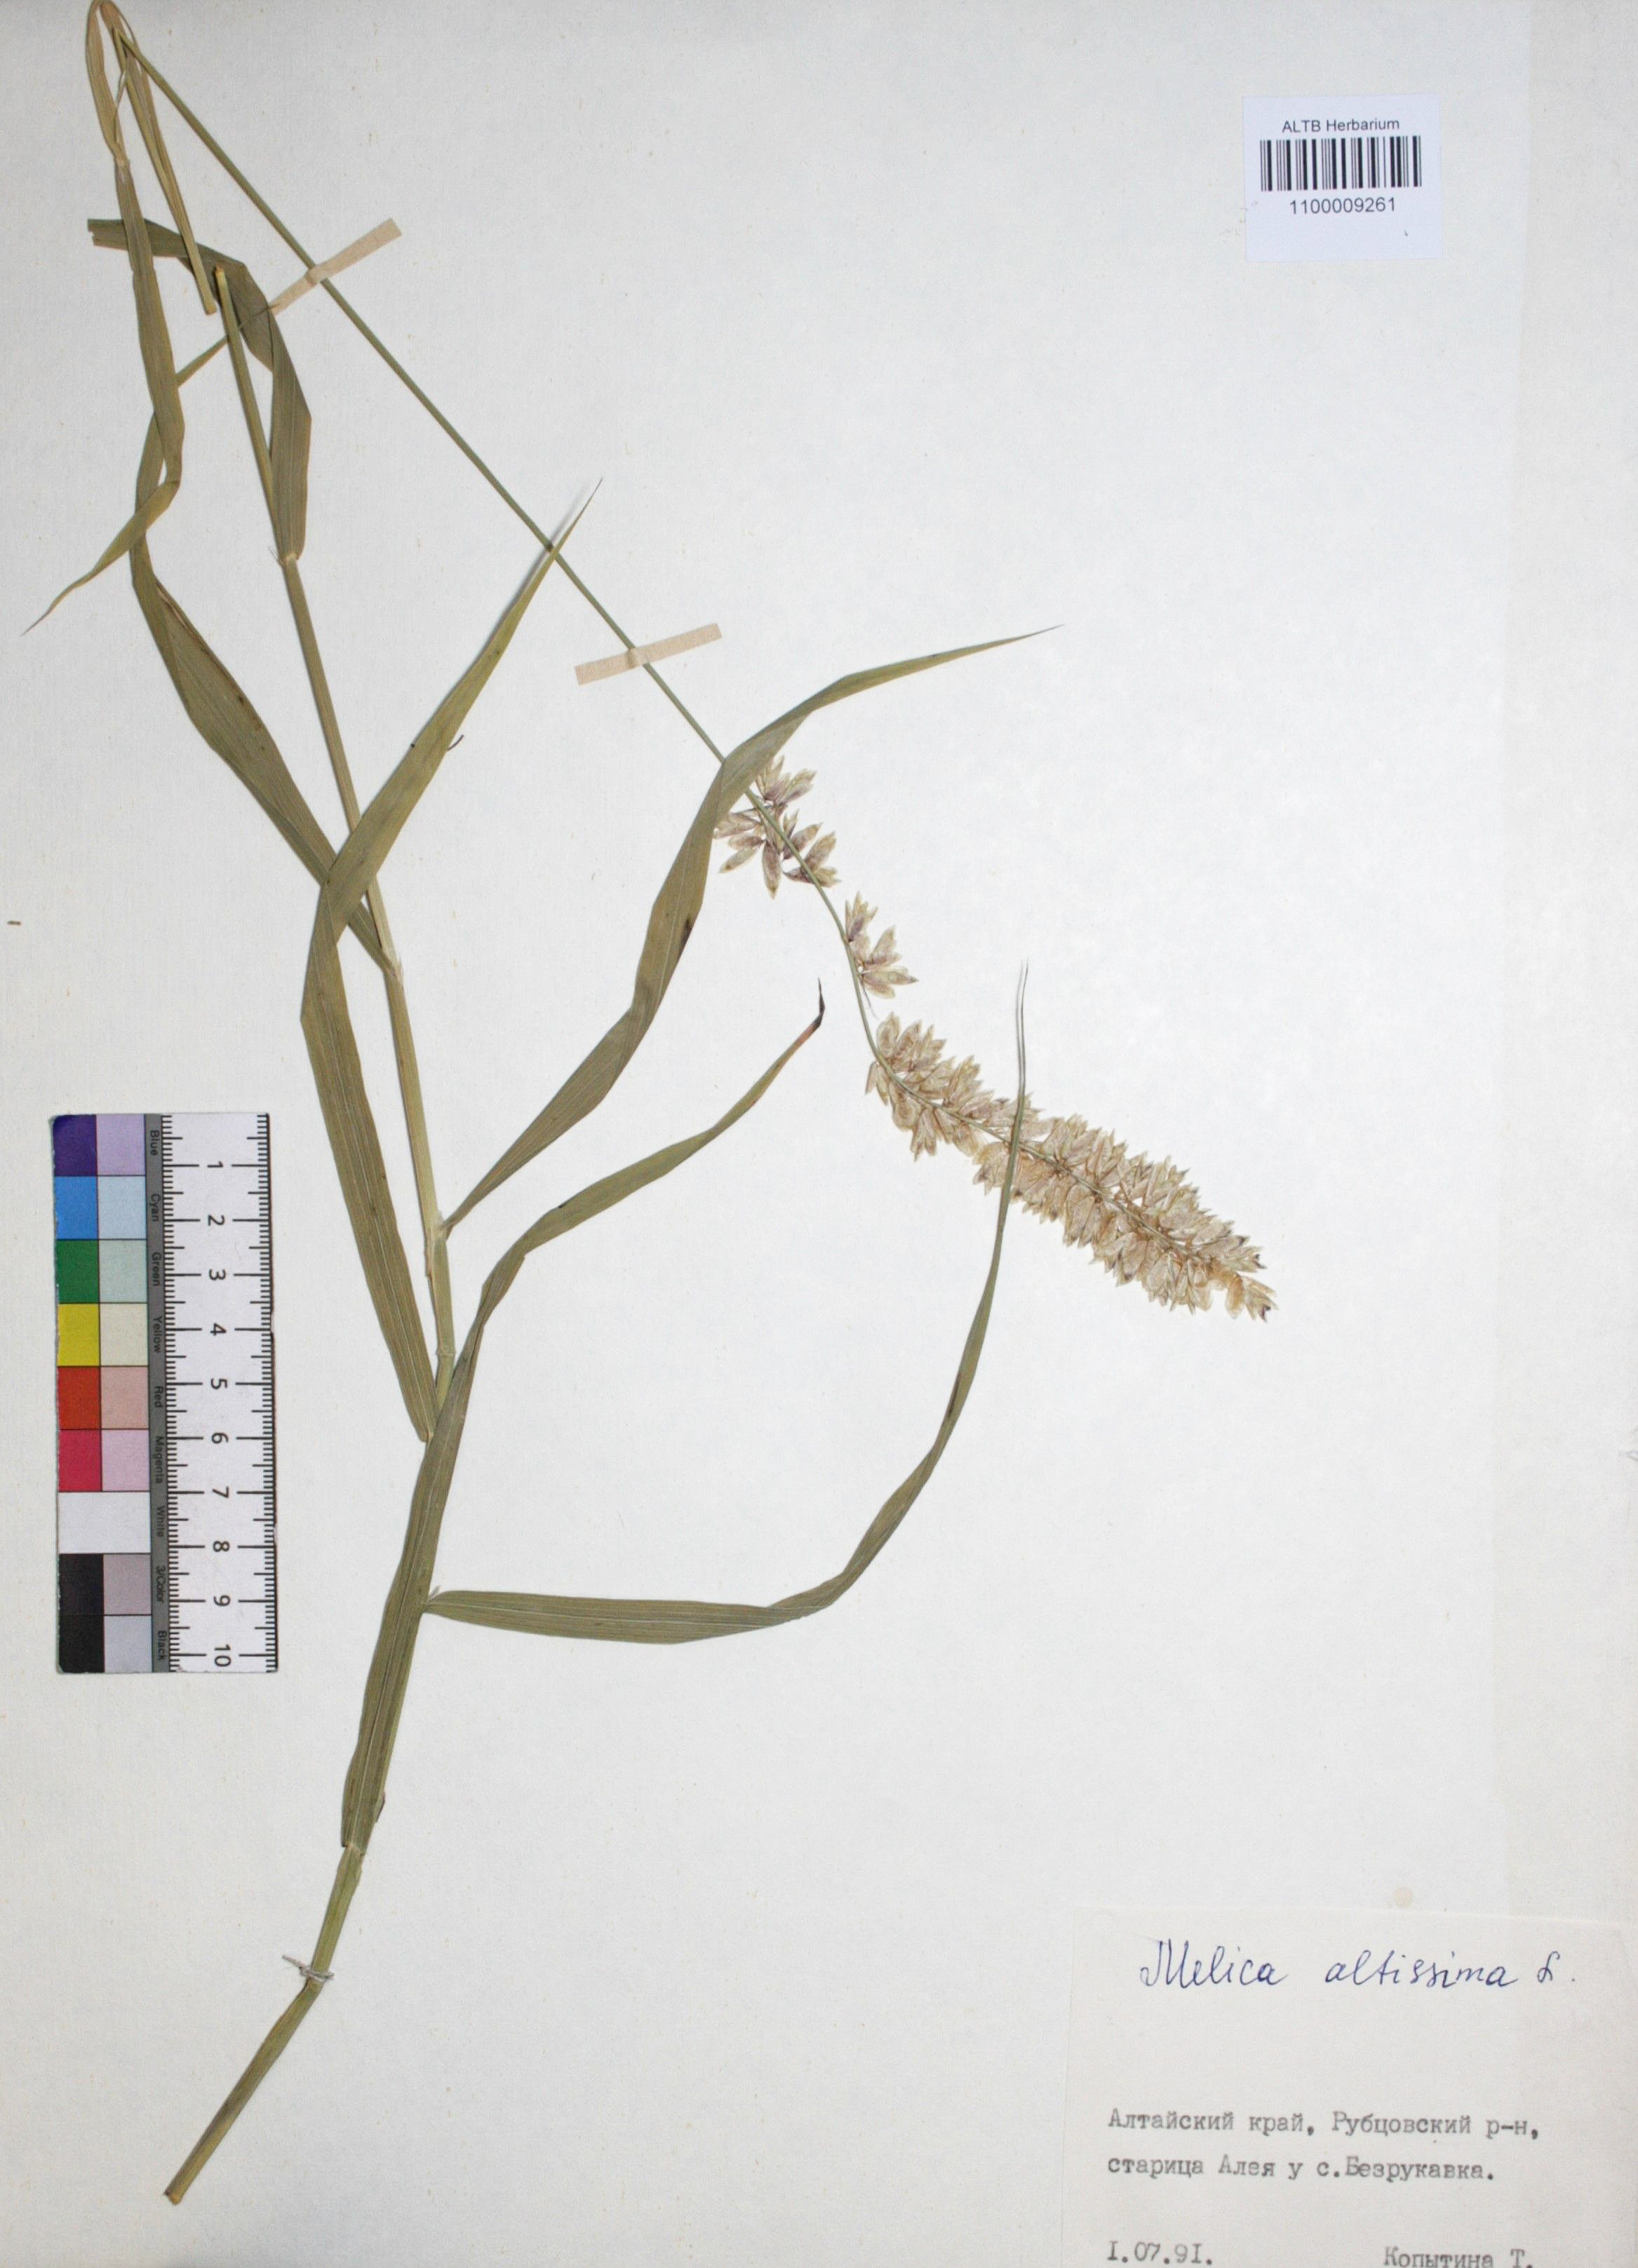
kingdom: Plantae
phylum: Tracheophyta
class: Liliopsida
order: Poales
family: Poaceae
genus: Melica
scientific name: Melica altissima
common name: Siberian melicgrass
